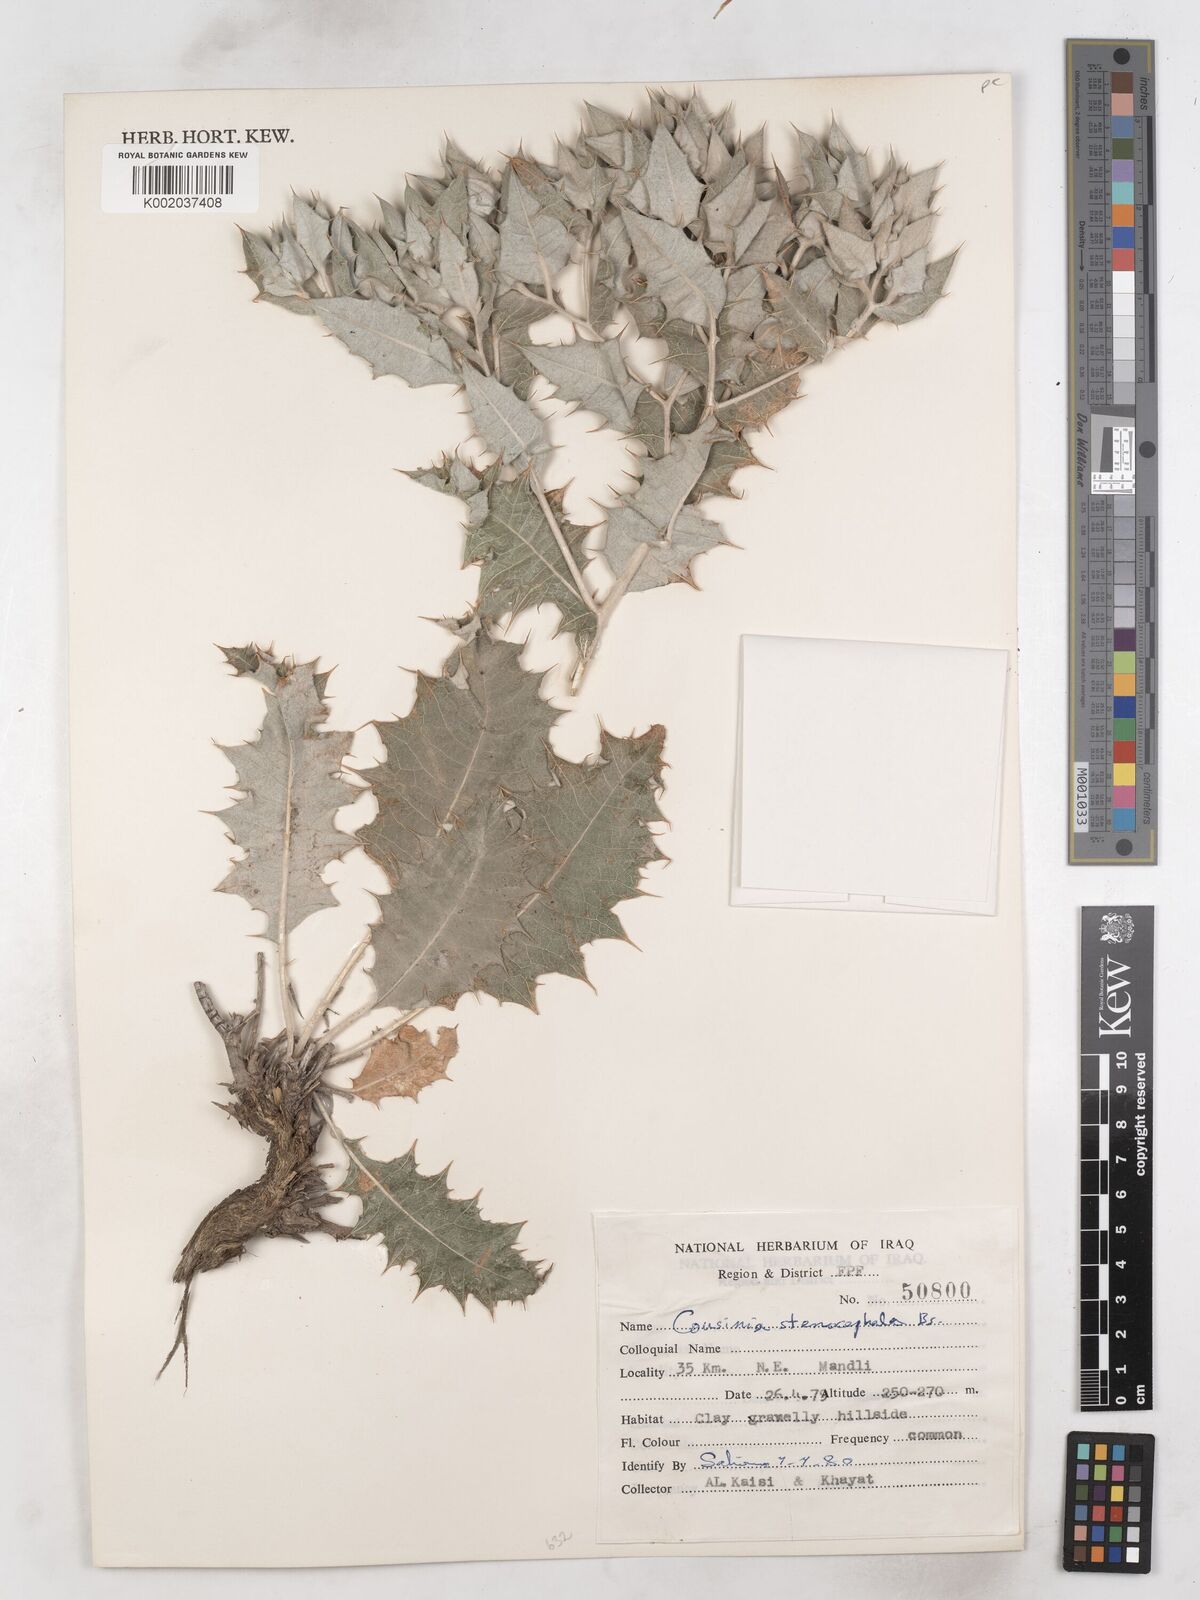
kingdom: Plantae
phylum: Tracheophyta
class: Magnoliopsida
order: Asterales
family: Asteraceae
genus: Cousinia
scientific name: Cousinia stenocephala
